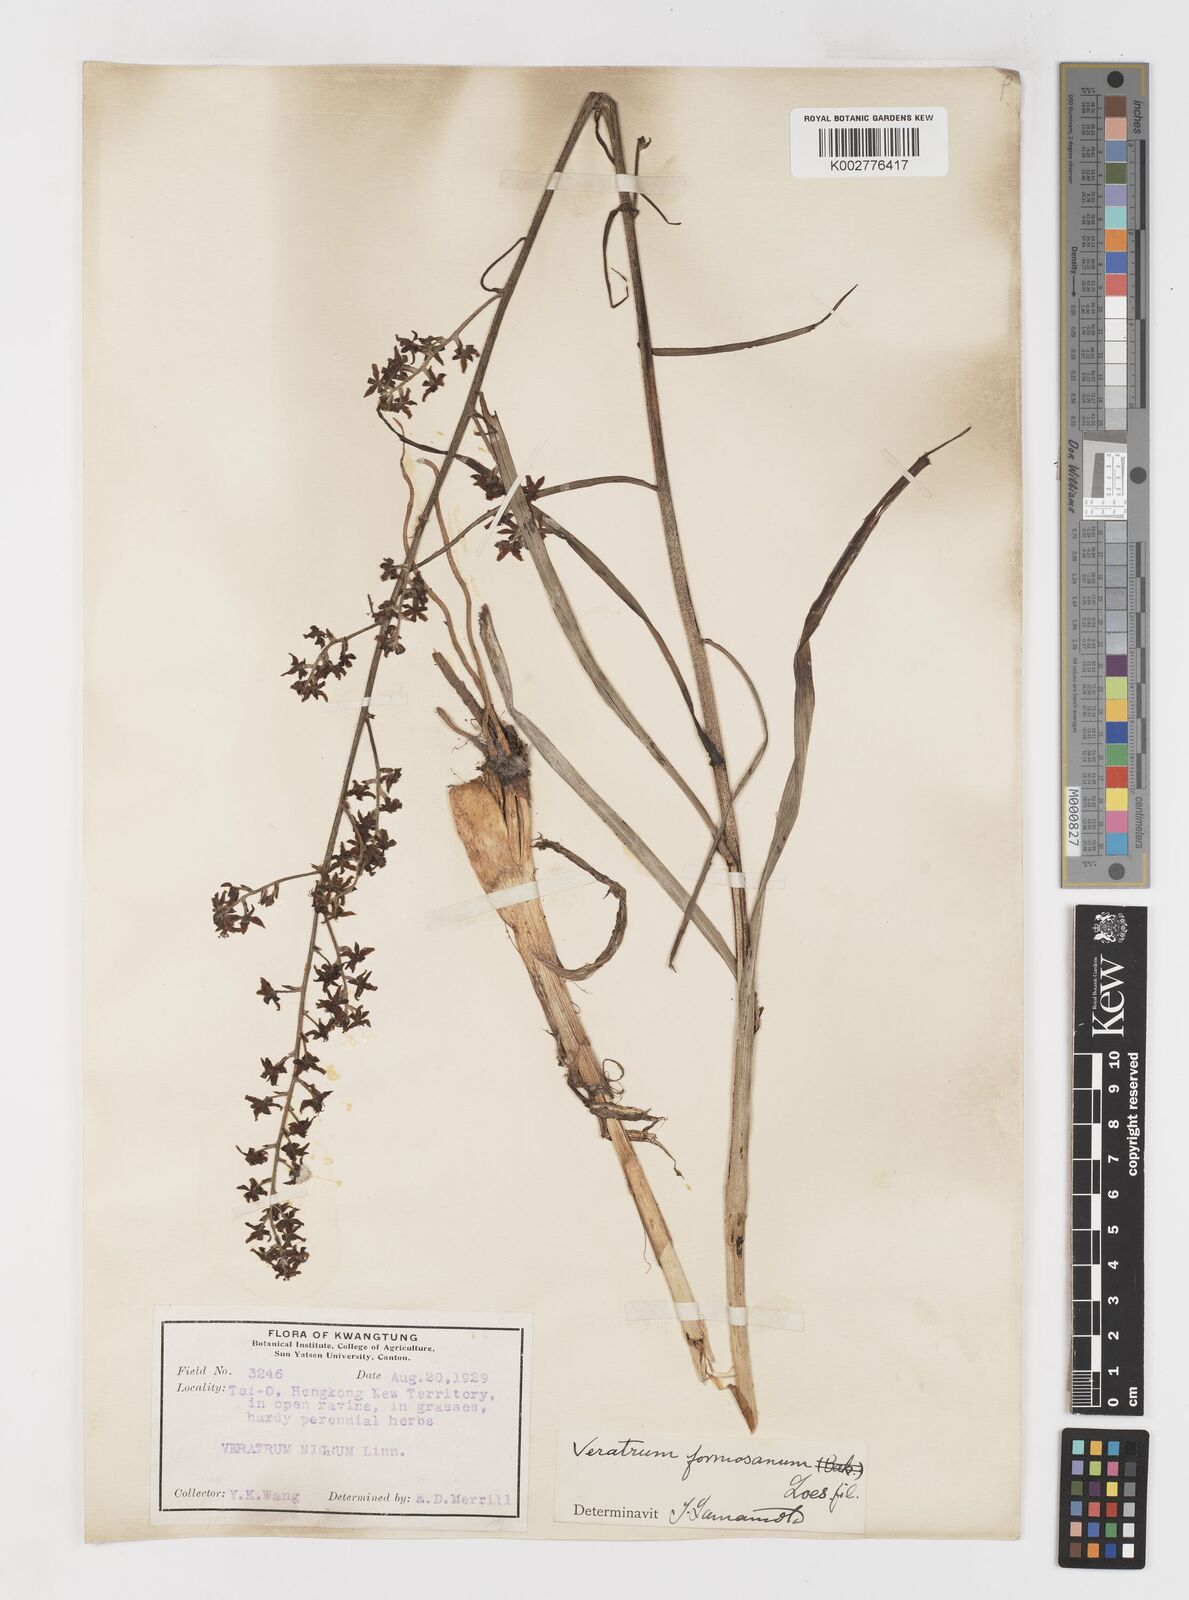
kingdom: Plantae
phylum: Tracheophyta
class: Liliopsida
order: Liliales
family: Melanthiaceae
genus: Veratrum
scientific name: Veratrum formosanum
